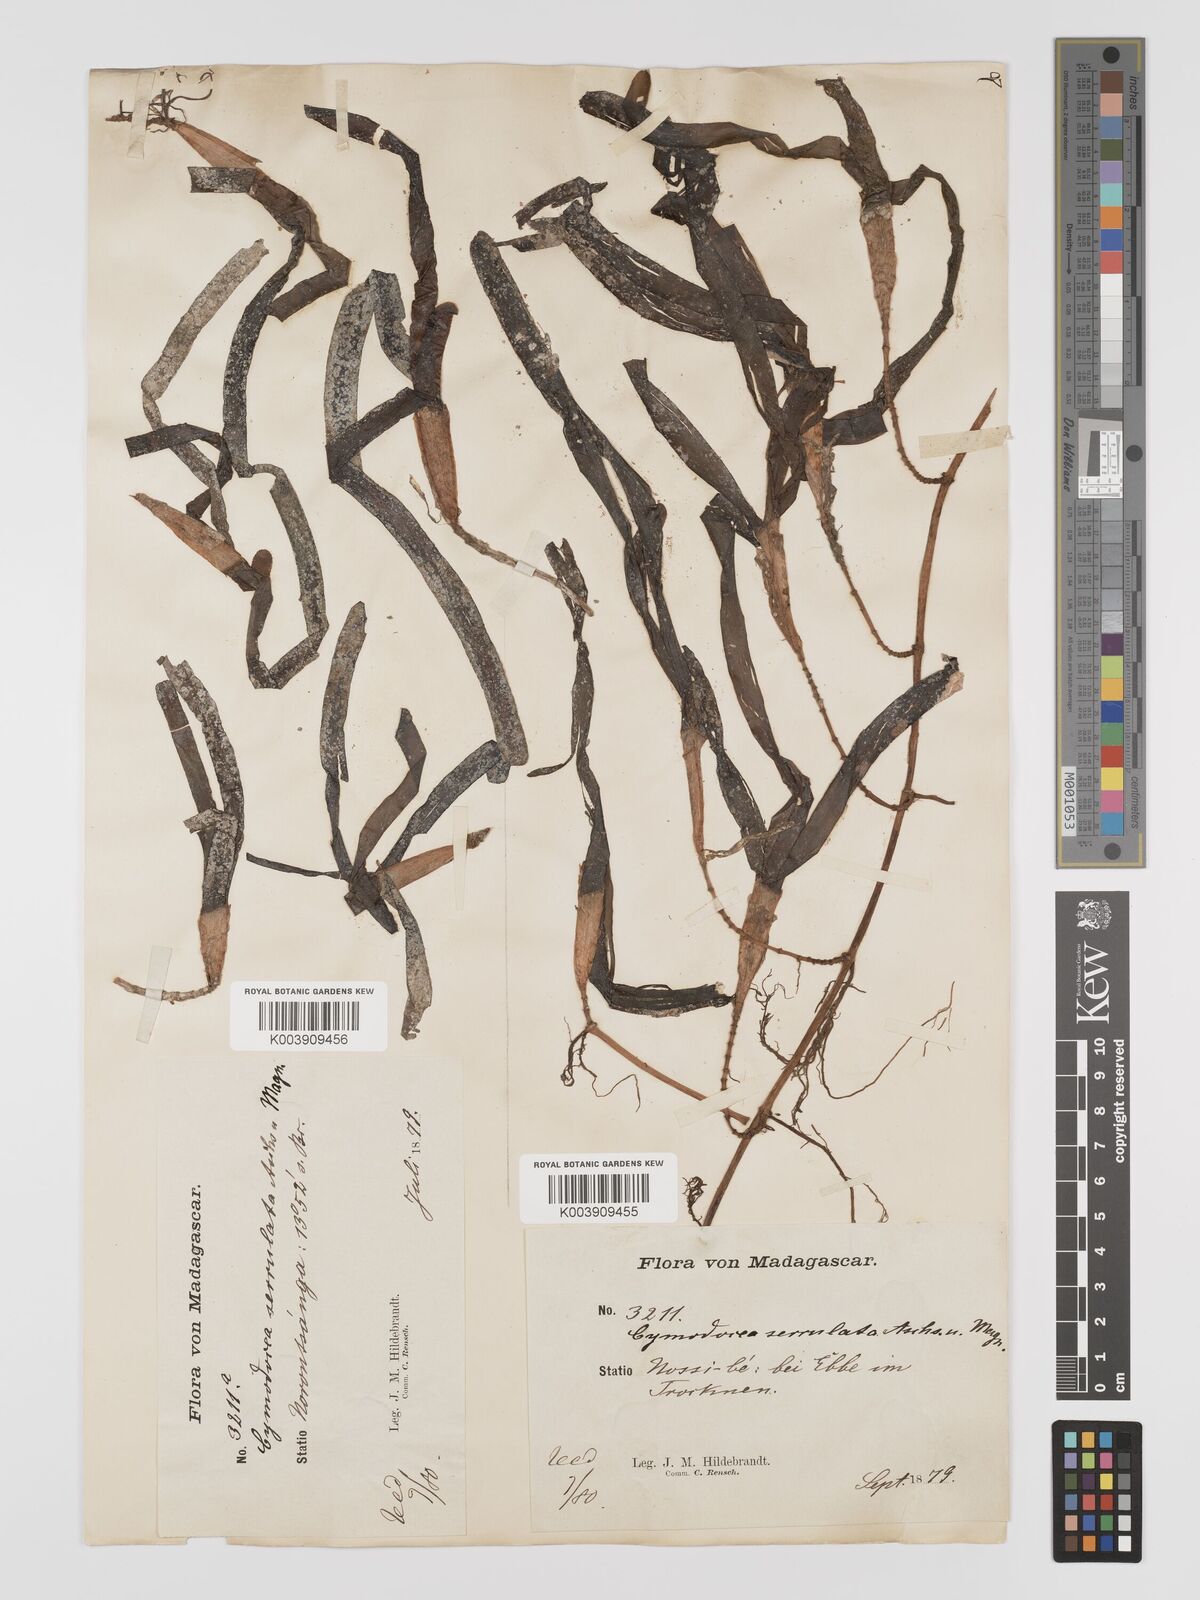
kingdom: Plantae
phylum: Tracheophyta
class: Liliopsida
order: Alismatales
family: Cymodoceaceae
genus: Oceana
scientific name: Oceana serrulata
